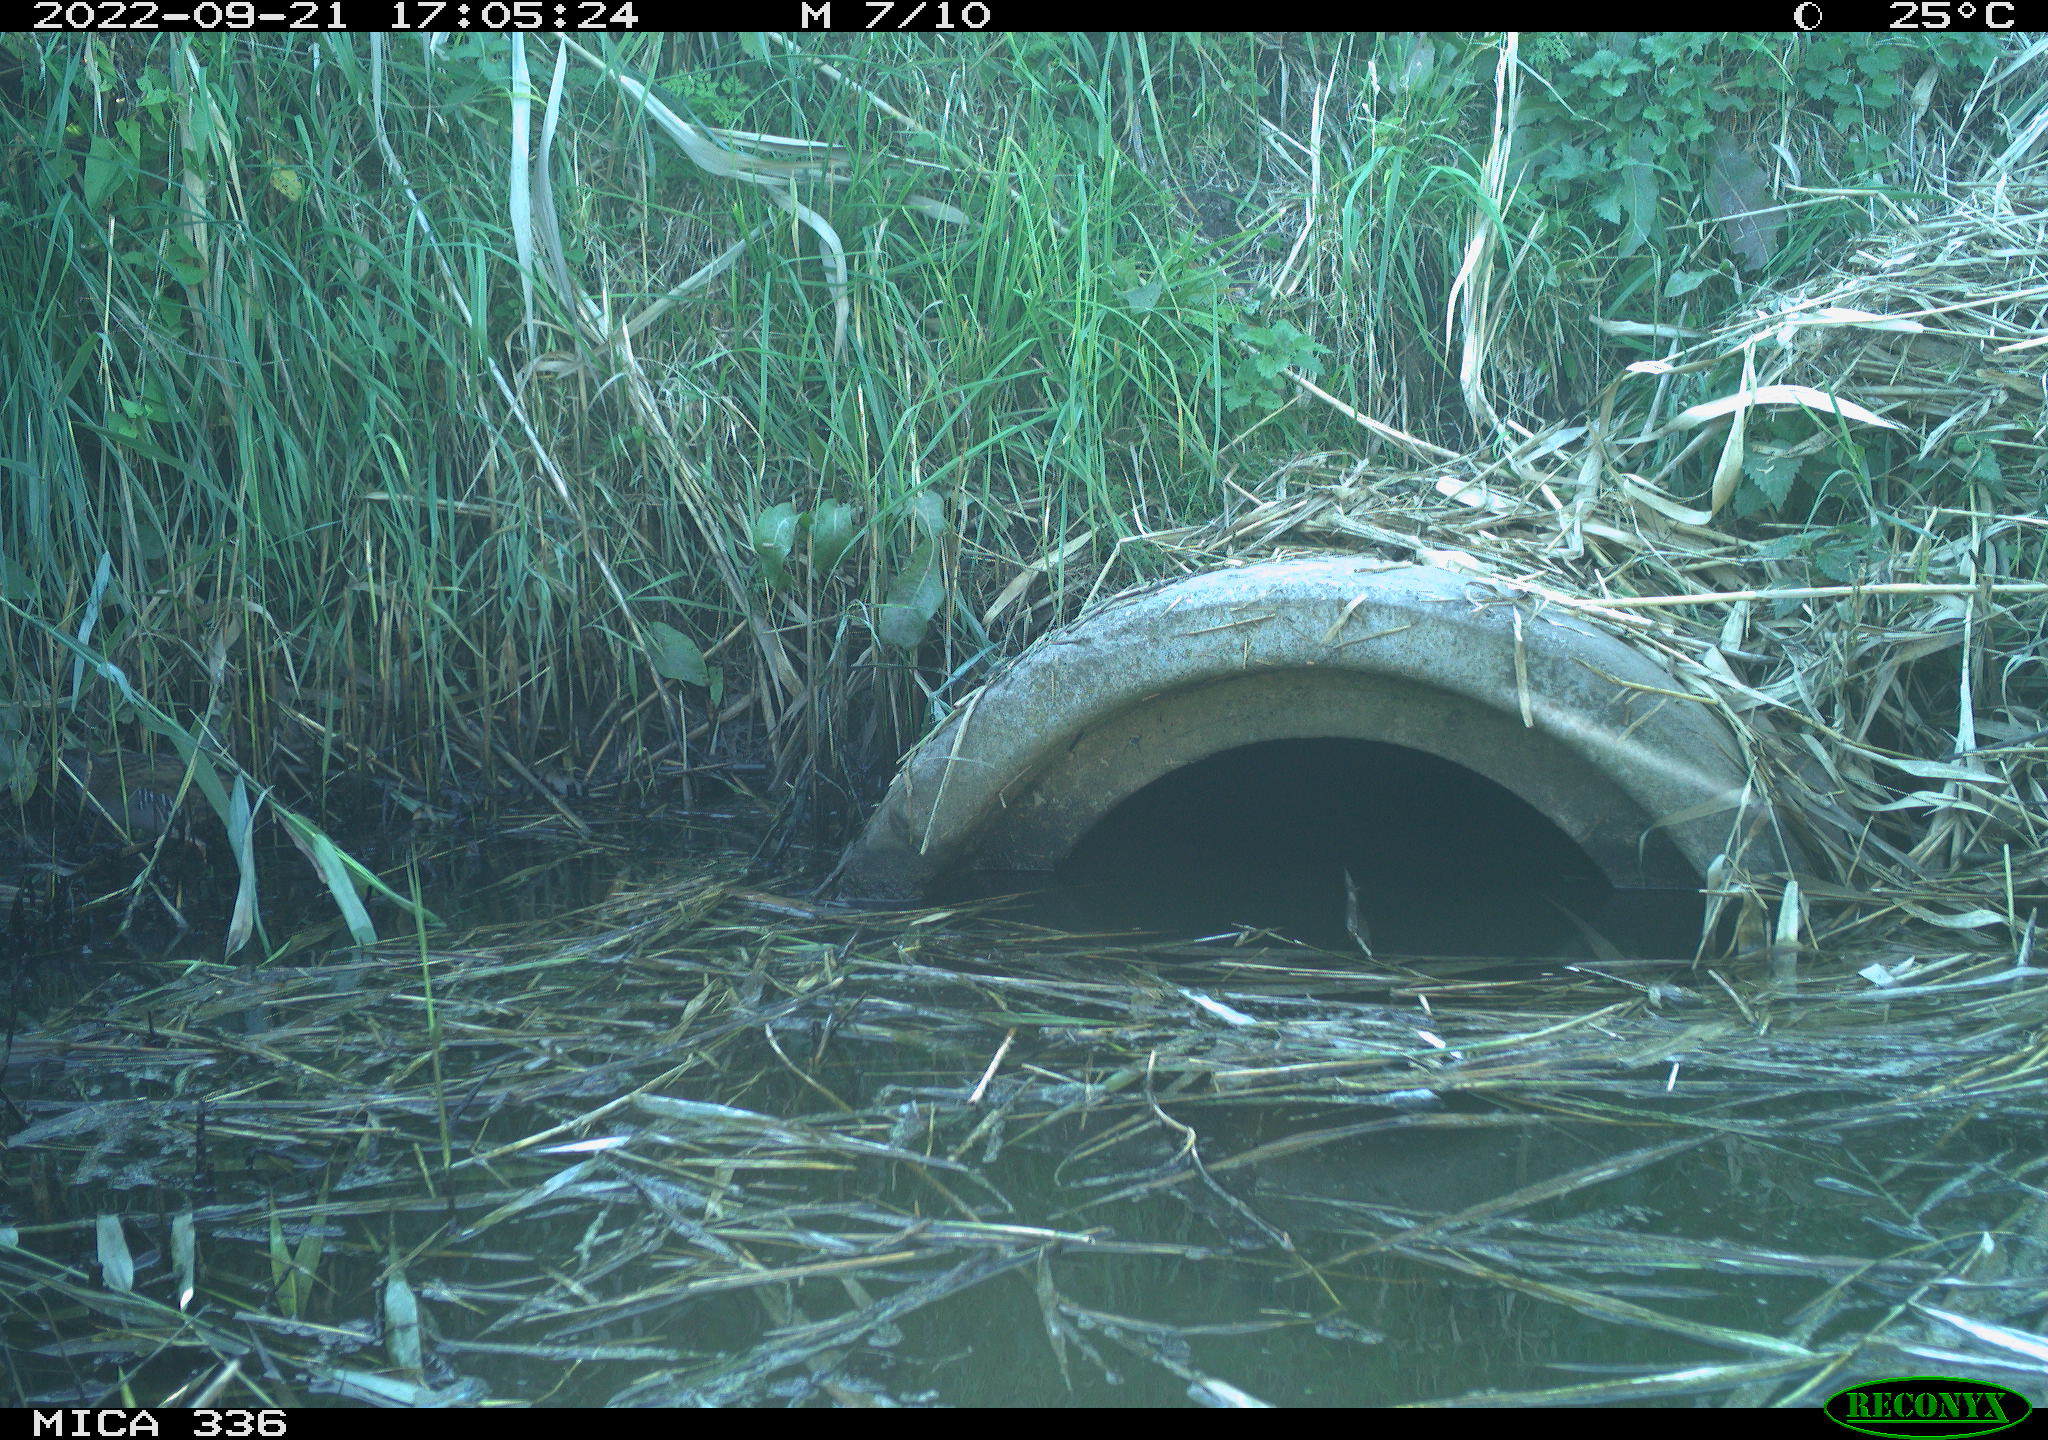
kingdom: Animalia
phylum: Chordata
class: Aves
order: Gruiformes
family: Rallidae
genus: Rallus
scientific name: Rallus aquaticus
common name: Water rail
